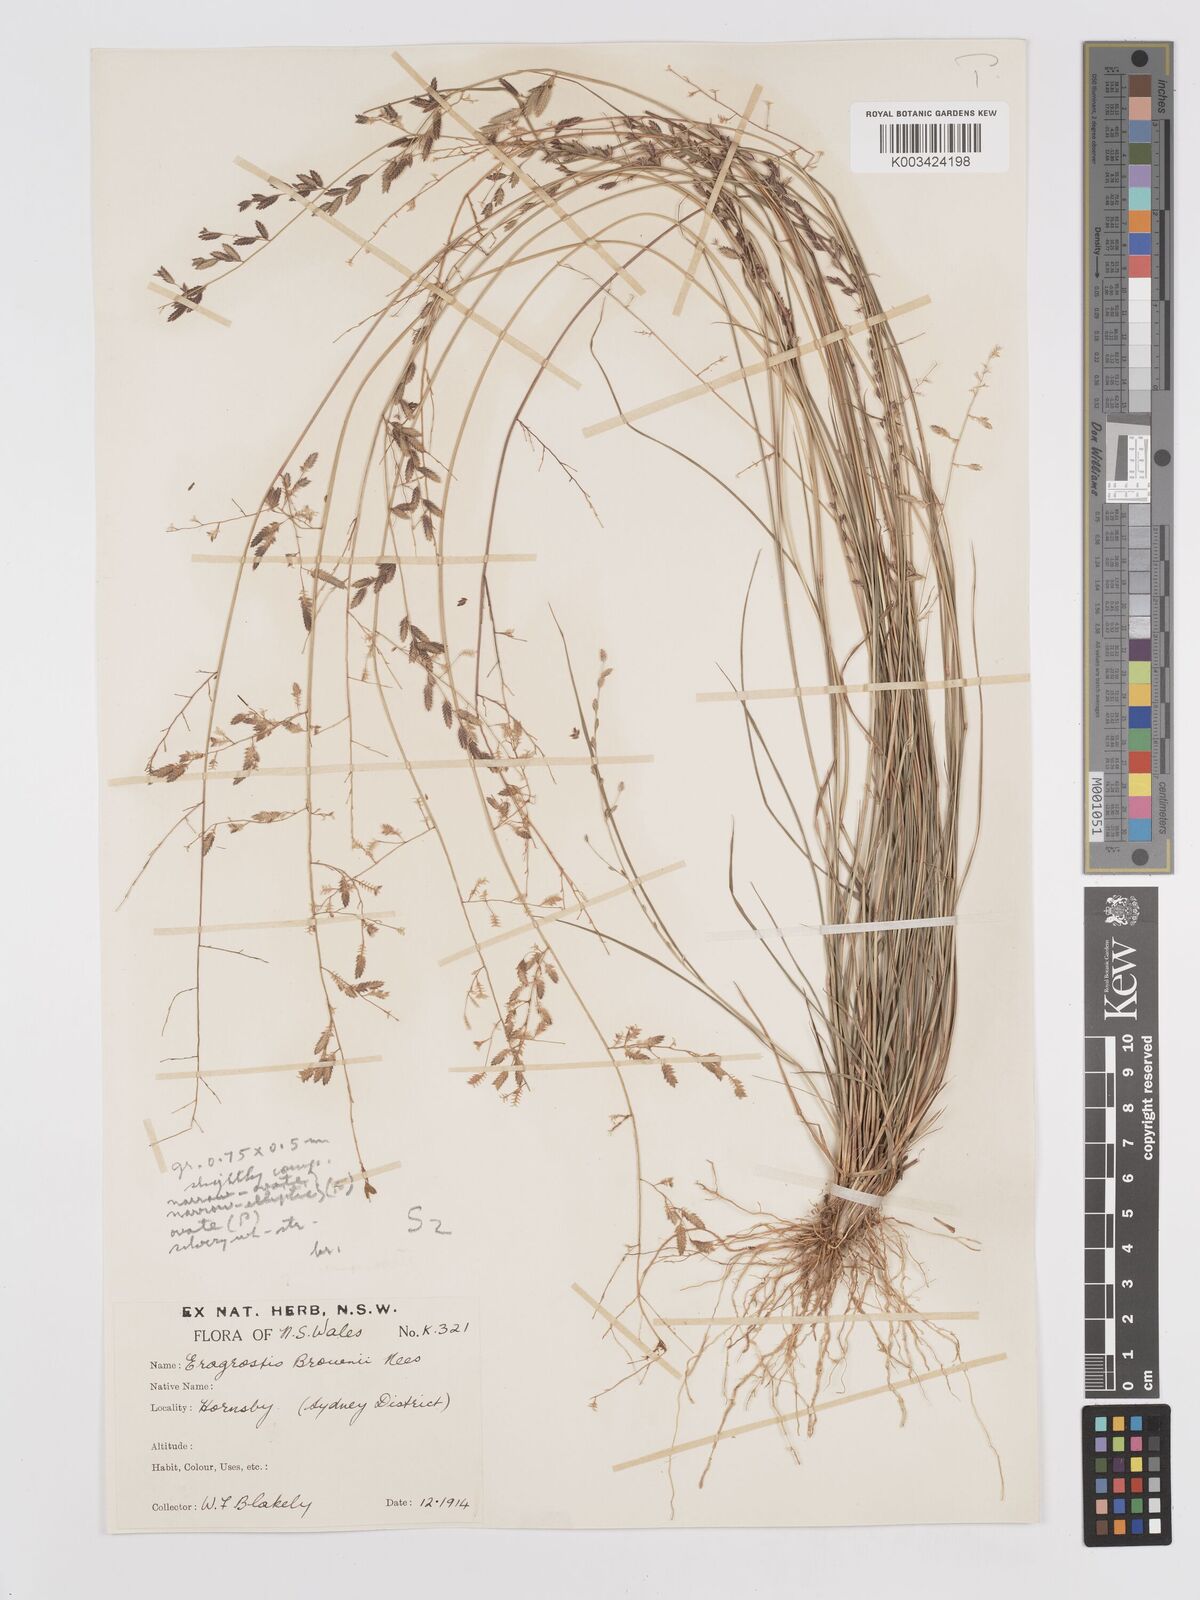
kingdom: Plantae
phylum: Tracheophyta
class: Liliopsida
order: Poales
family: Poaceae
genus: Eragrostis
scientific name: Eragrostis brownii
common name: Lovegrass
